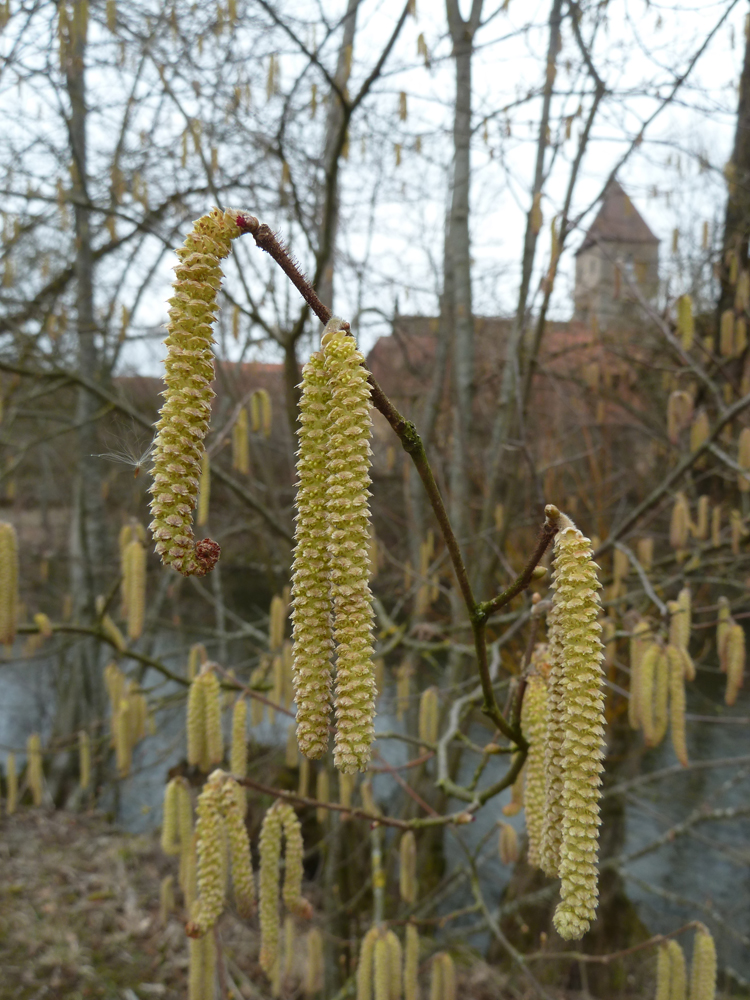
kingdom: Plantae
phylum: Tracheophyta
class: Magnoliopsida
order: Fagales
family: Betulaceae
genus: Corylus
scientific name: Corylus avellana
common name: European hazel
